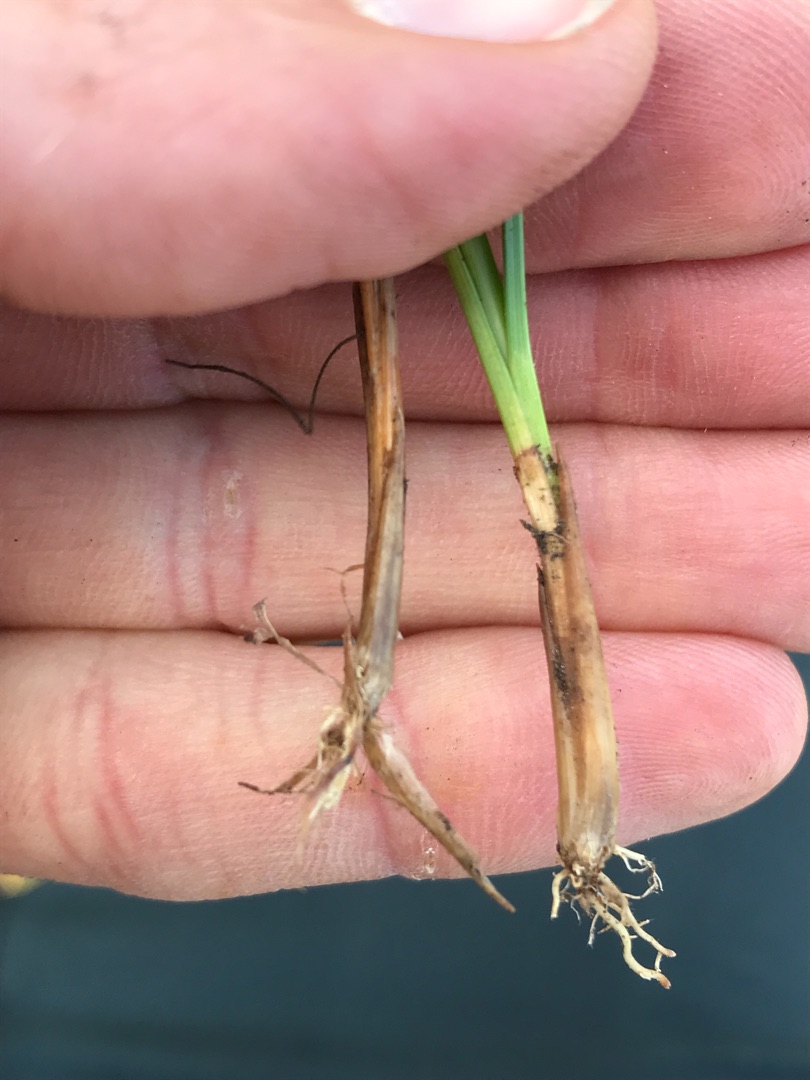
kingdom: Plantae
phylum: Tracheophyta
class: Liliopsida
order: Poales
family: Cyperaceae
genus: Rhynchospora
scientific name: Rhynchospora alba
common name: Hvid næbfrø
